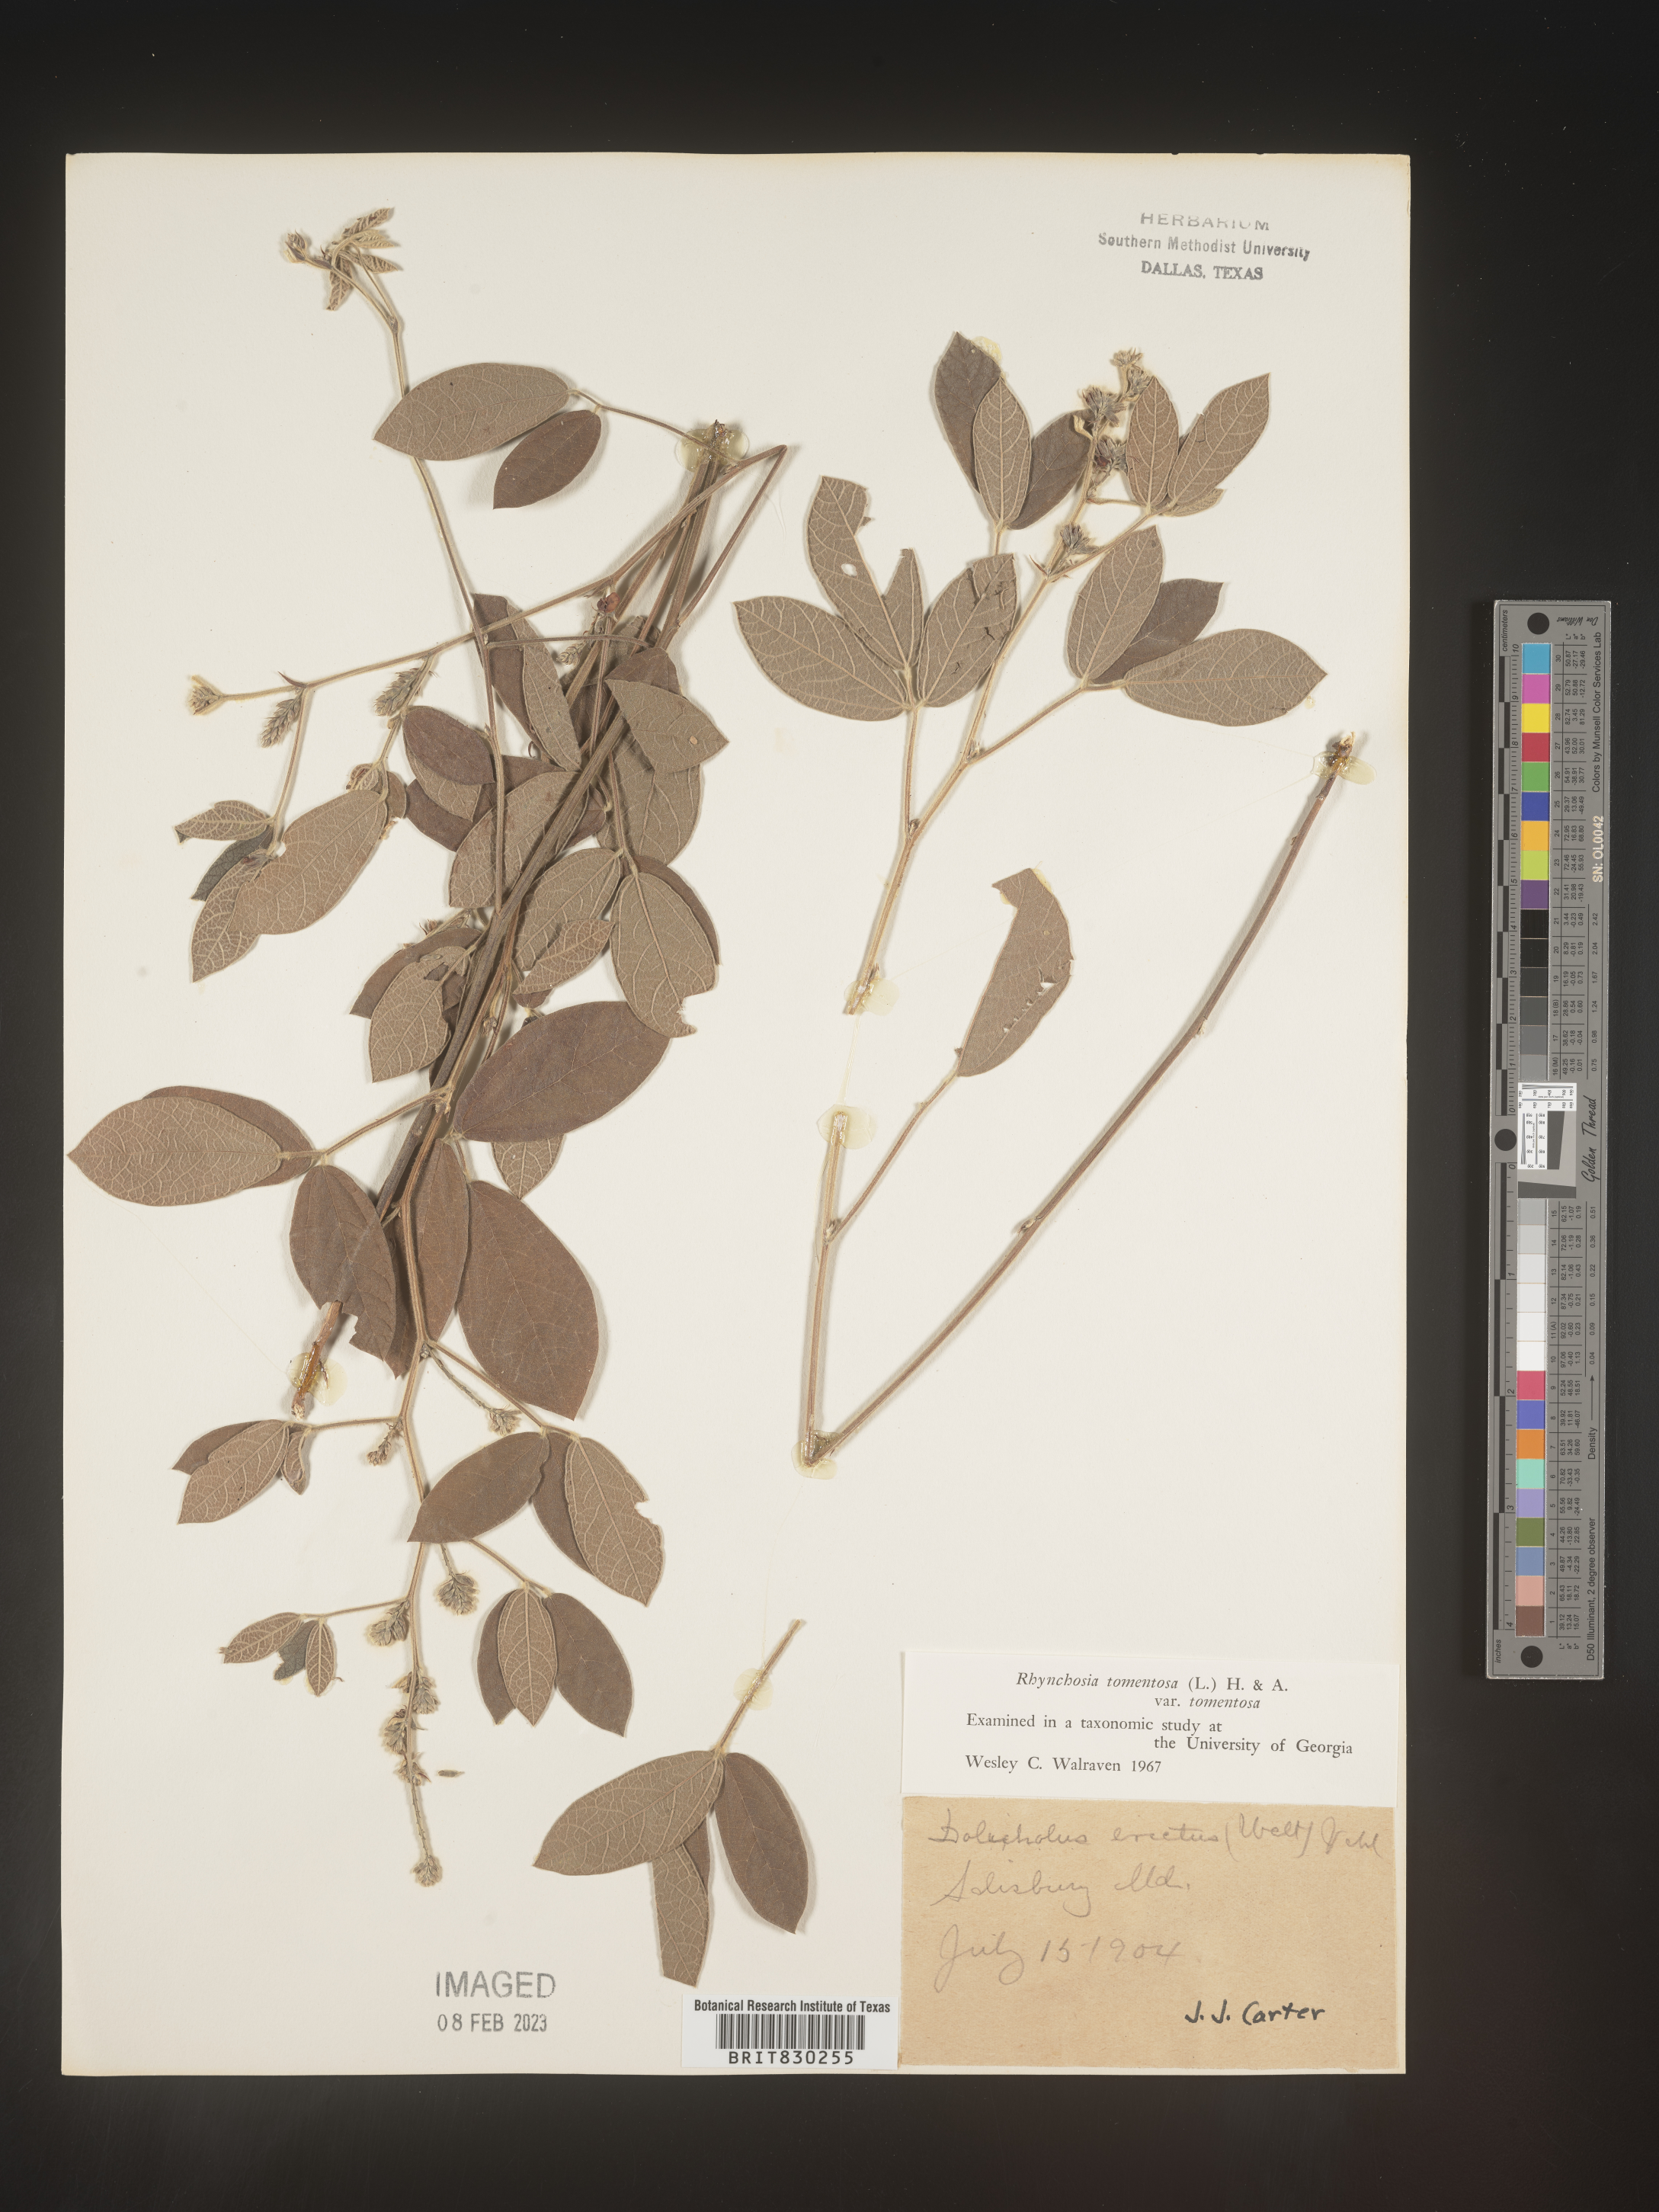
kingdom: Plantae
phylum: Tracheophyta
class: Magnoliopsida
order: Fabales
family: Fabaceae
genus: Rhynchosia
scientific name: Rhynchosia rothii
